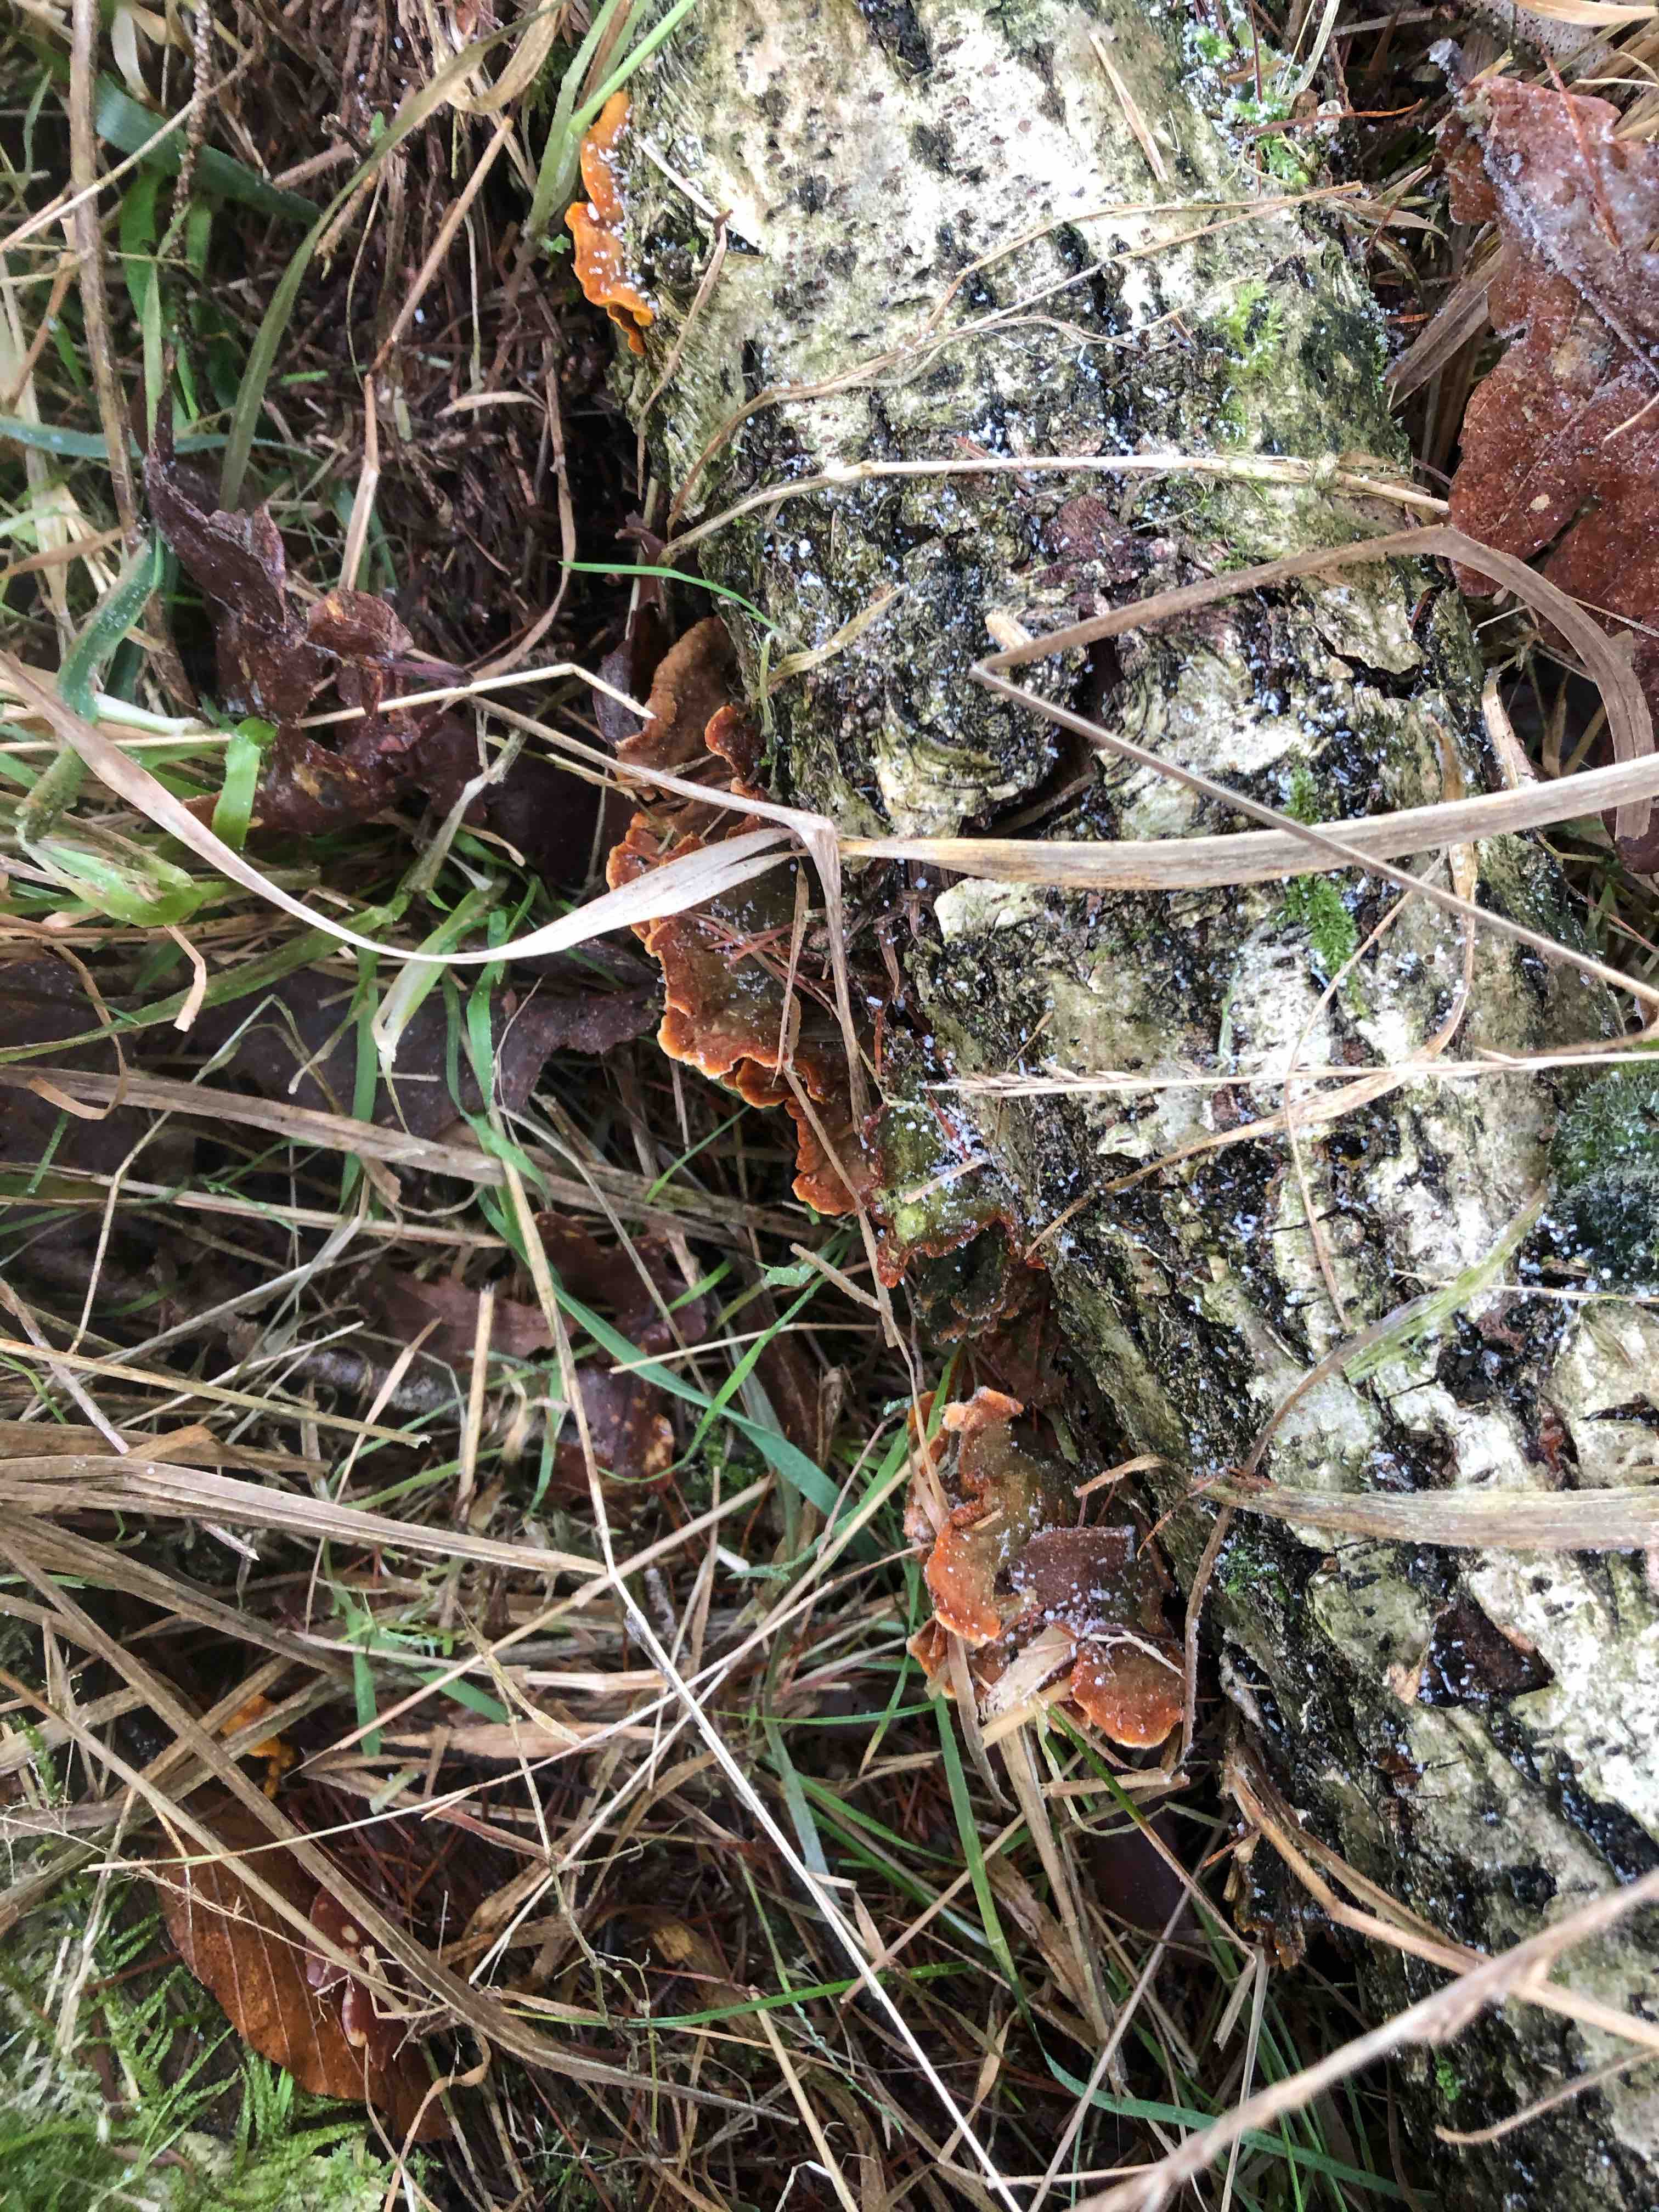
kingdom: Fungi
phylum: Basidiomycota
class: Agaricomycetes
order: Russulales
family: Stereaceae
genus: Stereum
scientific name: Stereum subtomentosum
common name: smuk lædersvamp
